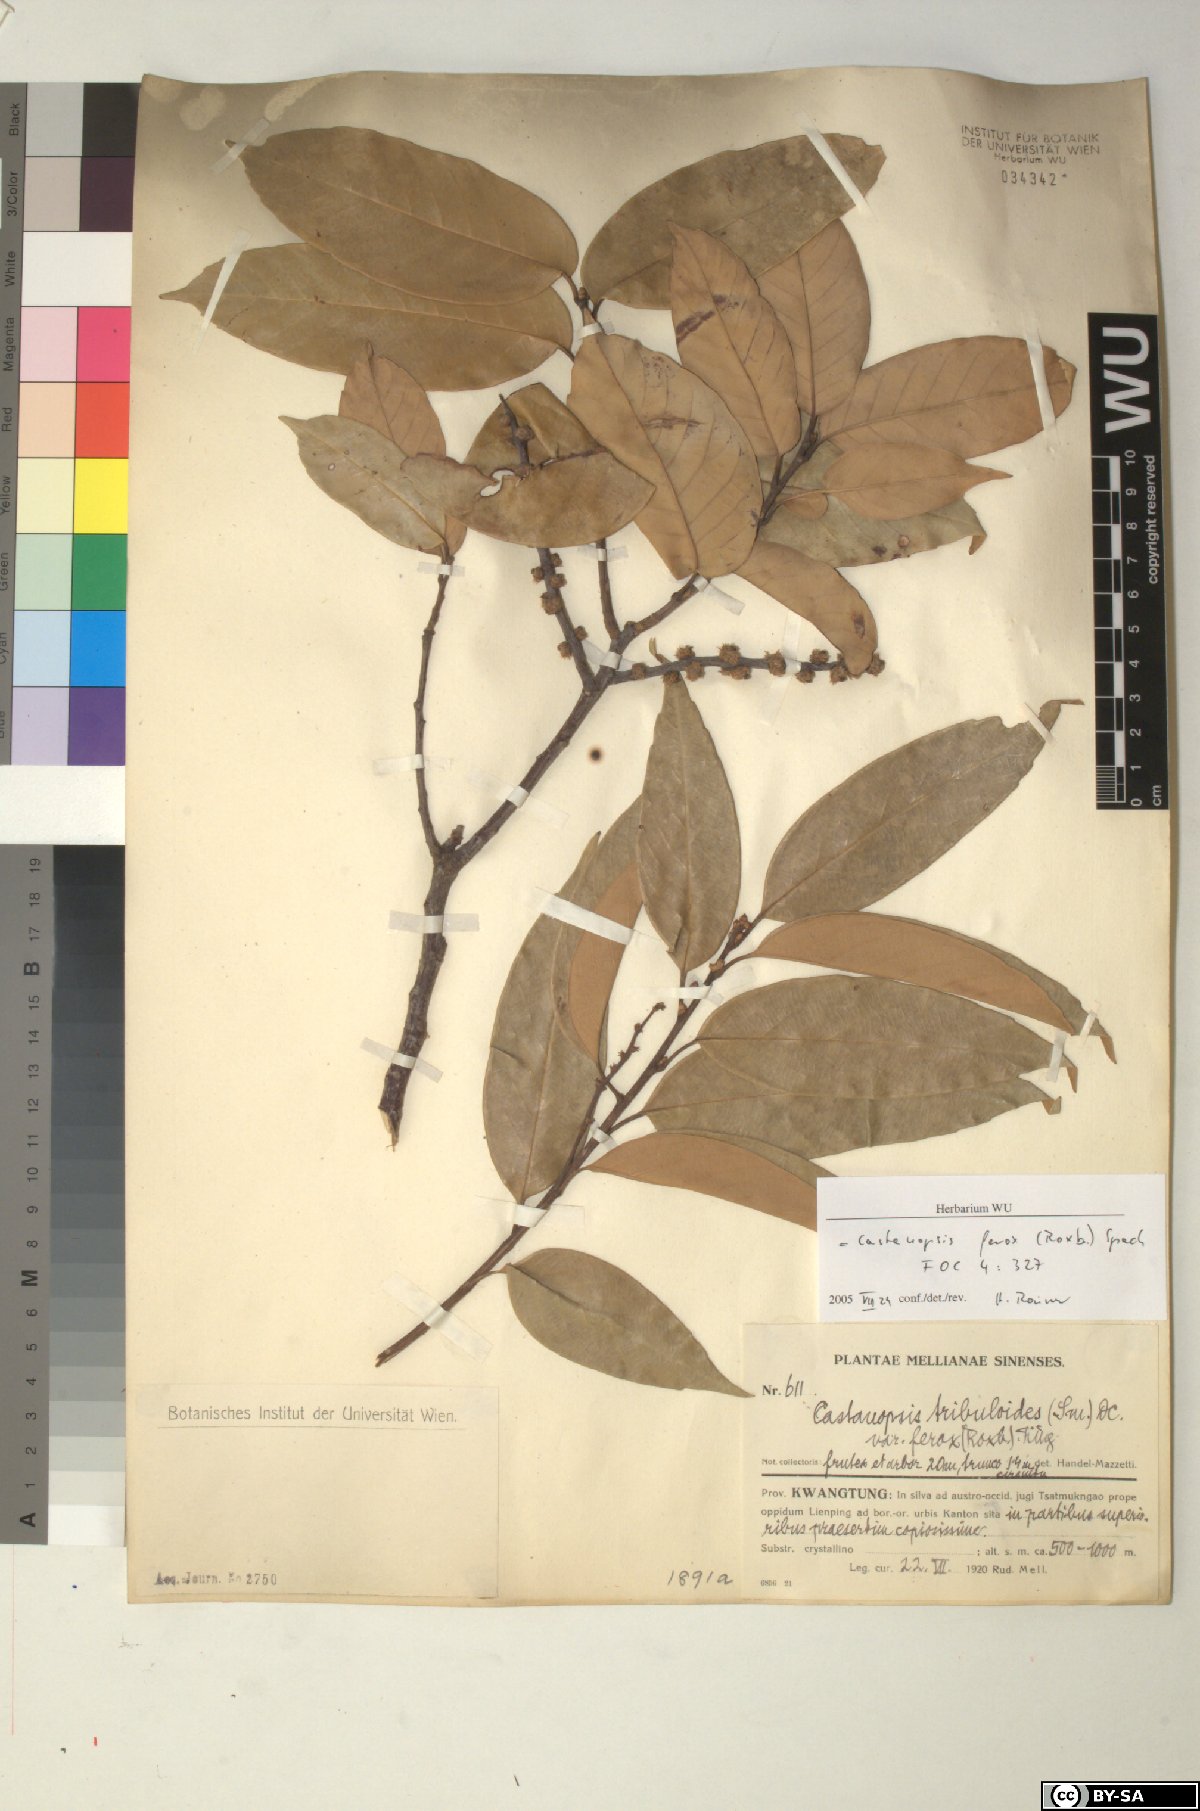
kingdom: Plantae
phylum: Tracheophyta
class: Magnoliopsida
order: Fagales
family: Fagaceae
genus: Castanopsis
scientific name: Castanopsis ferox
